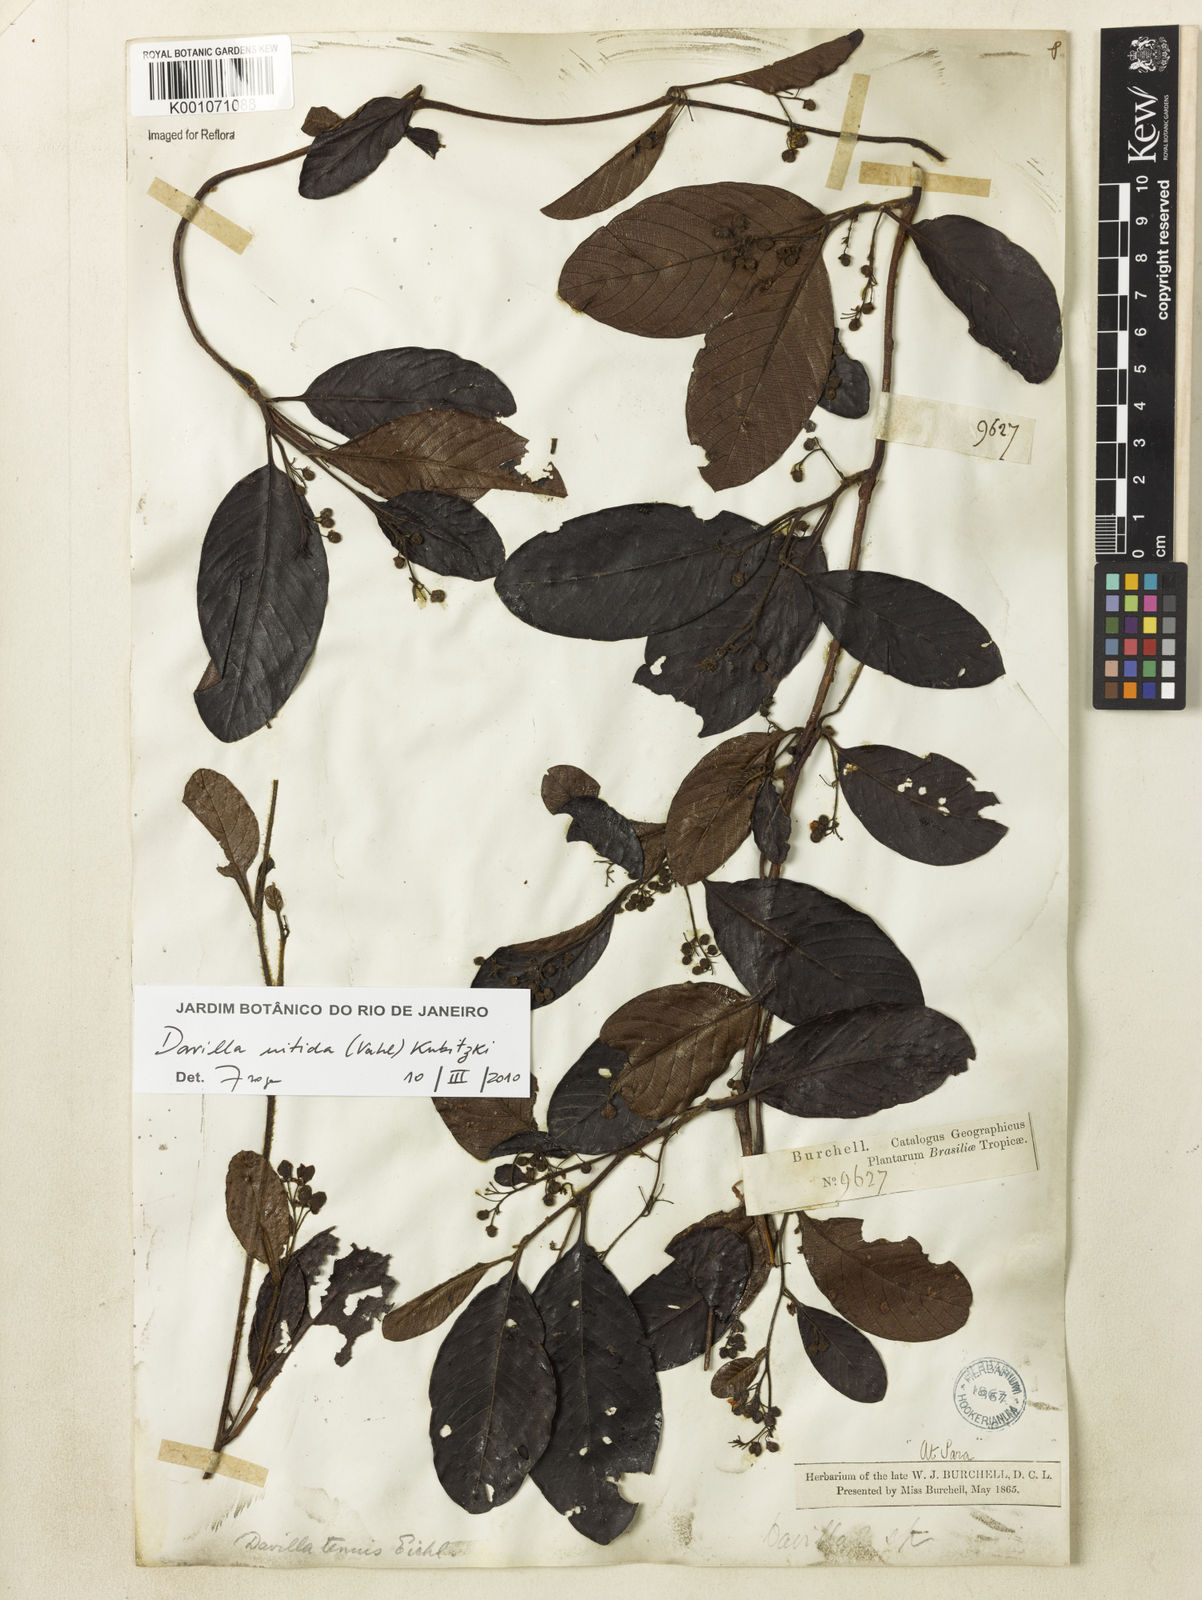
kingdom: Plantae
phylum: Tracheophyta
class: Magnoliopsida
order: Dilleniales
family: Dilleniaceae
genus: Davilla
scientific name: Davilla nitida
